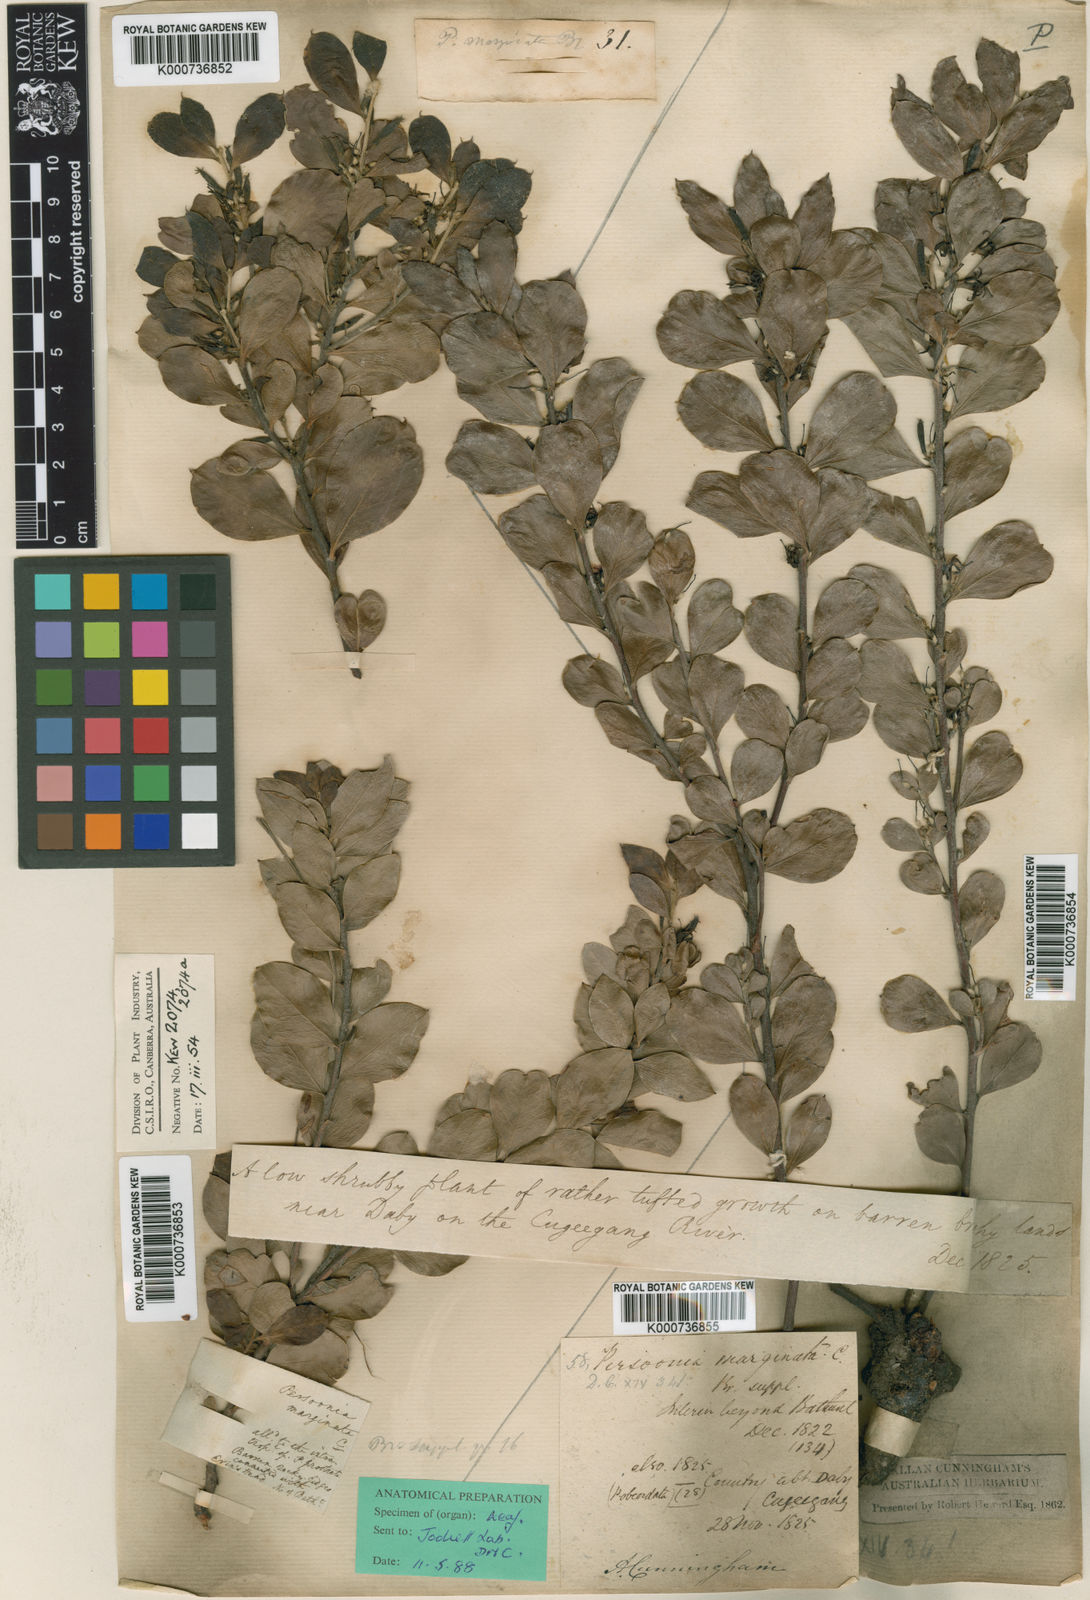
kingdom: Plantae
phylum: Tracheophyta
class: Magnoliopsida
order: Proteales
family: Proteaceae
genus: Persoonia
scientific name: Persoonia marginata
